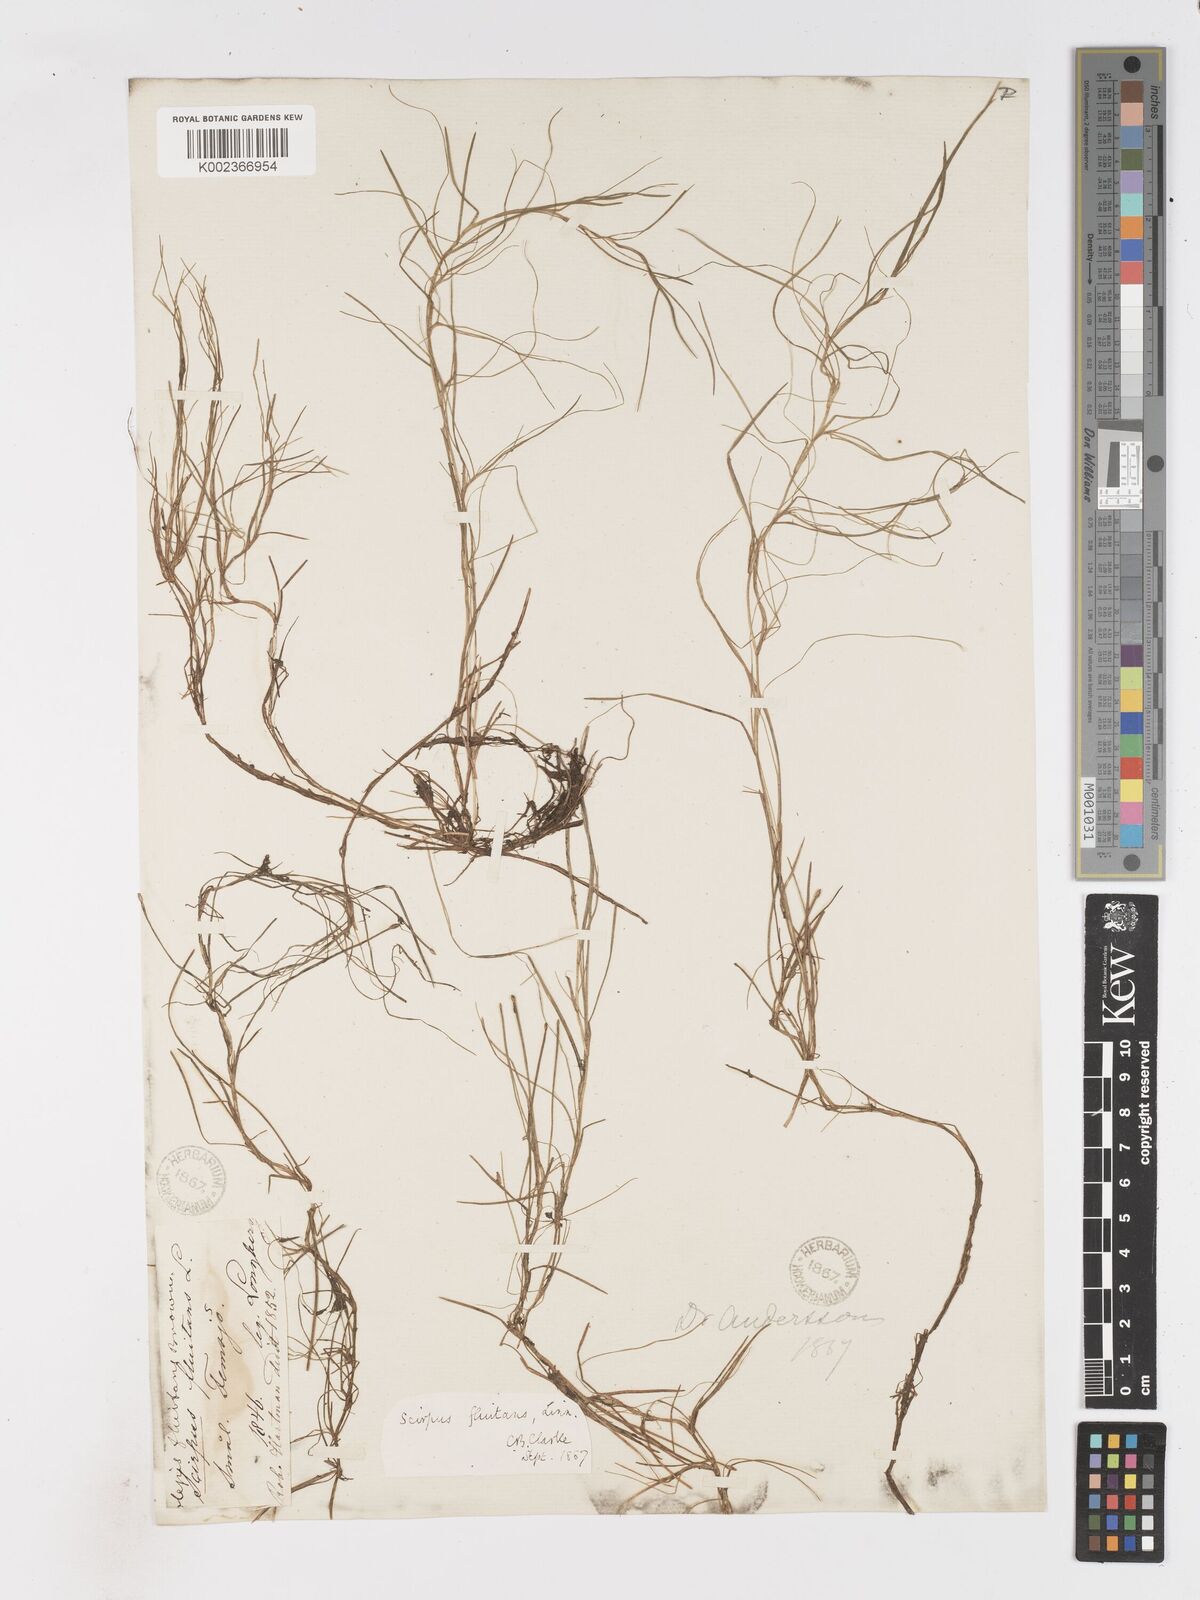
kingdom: Plantae
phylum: Tracheophyta
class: Liliopsida
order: Poales
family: Cyperaceae
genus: Isolepis
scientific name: Isolepis fluitans
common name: Floating club-rush
